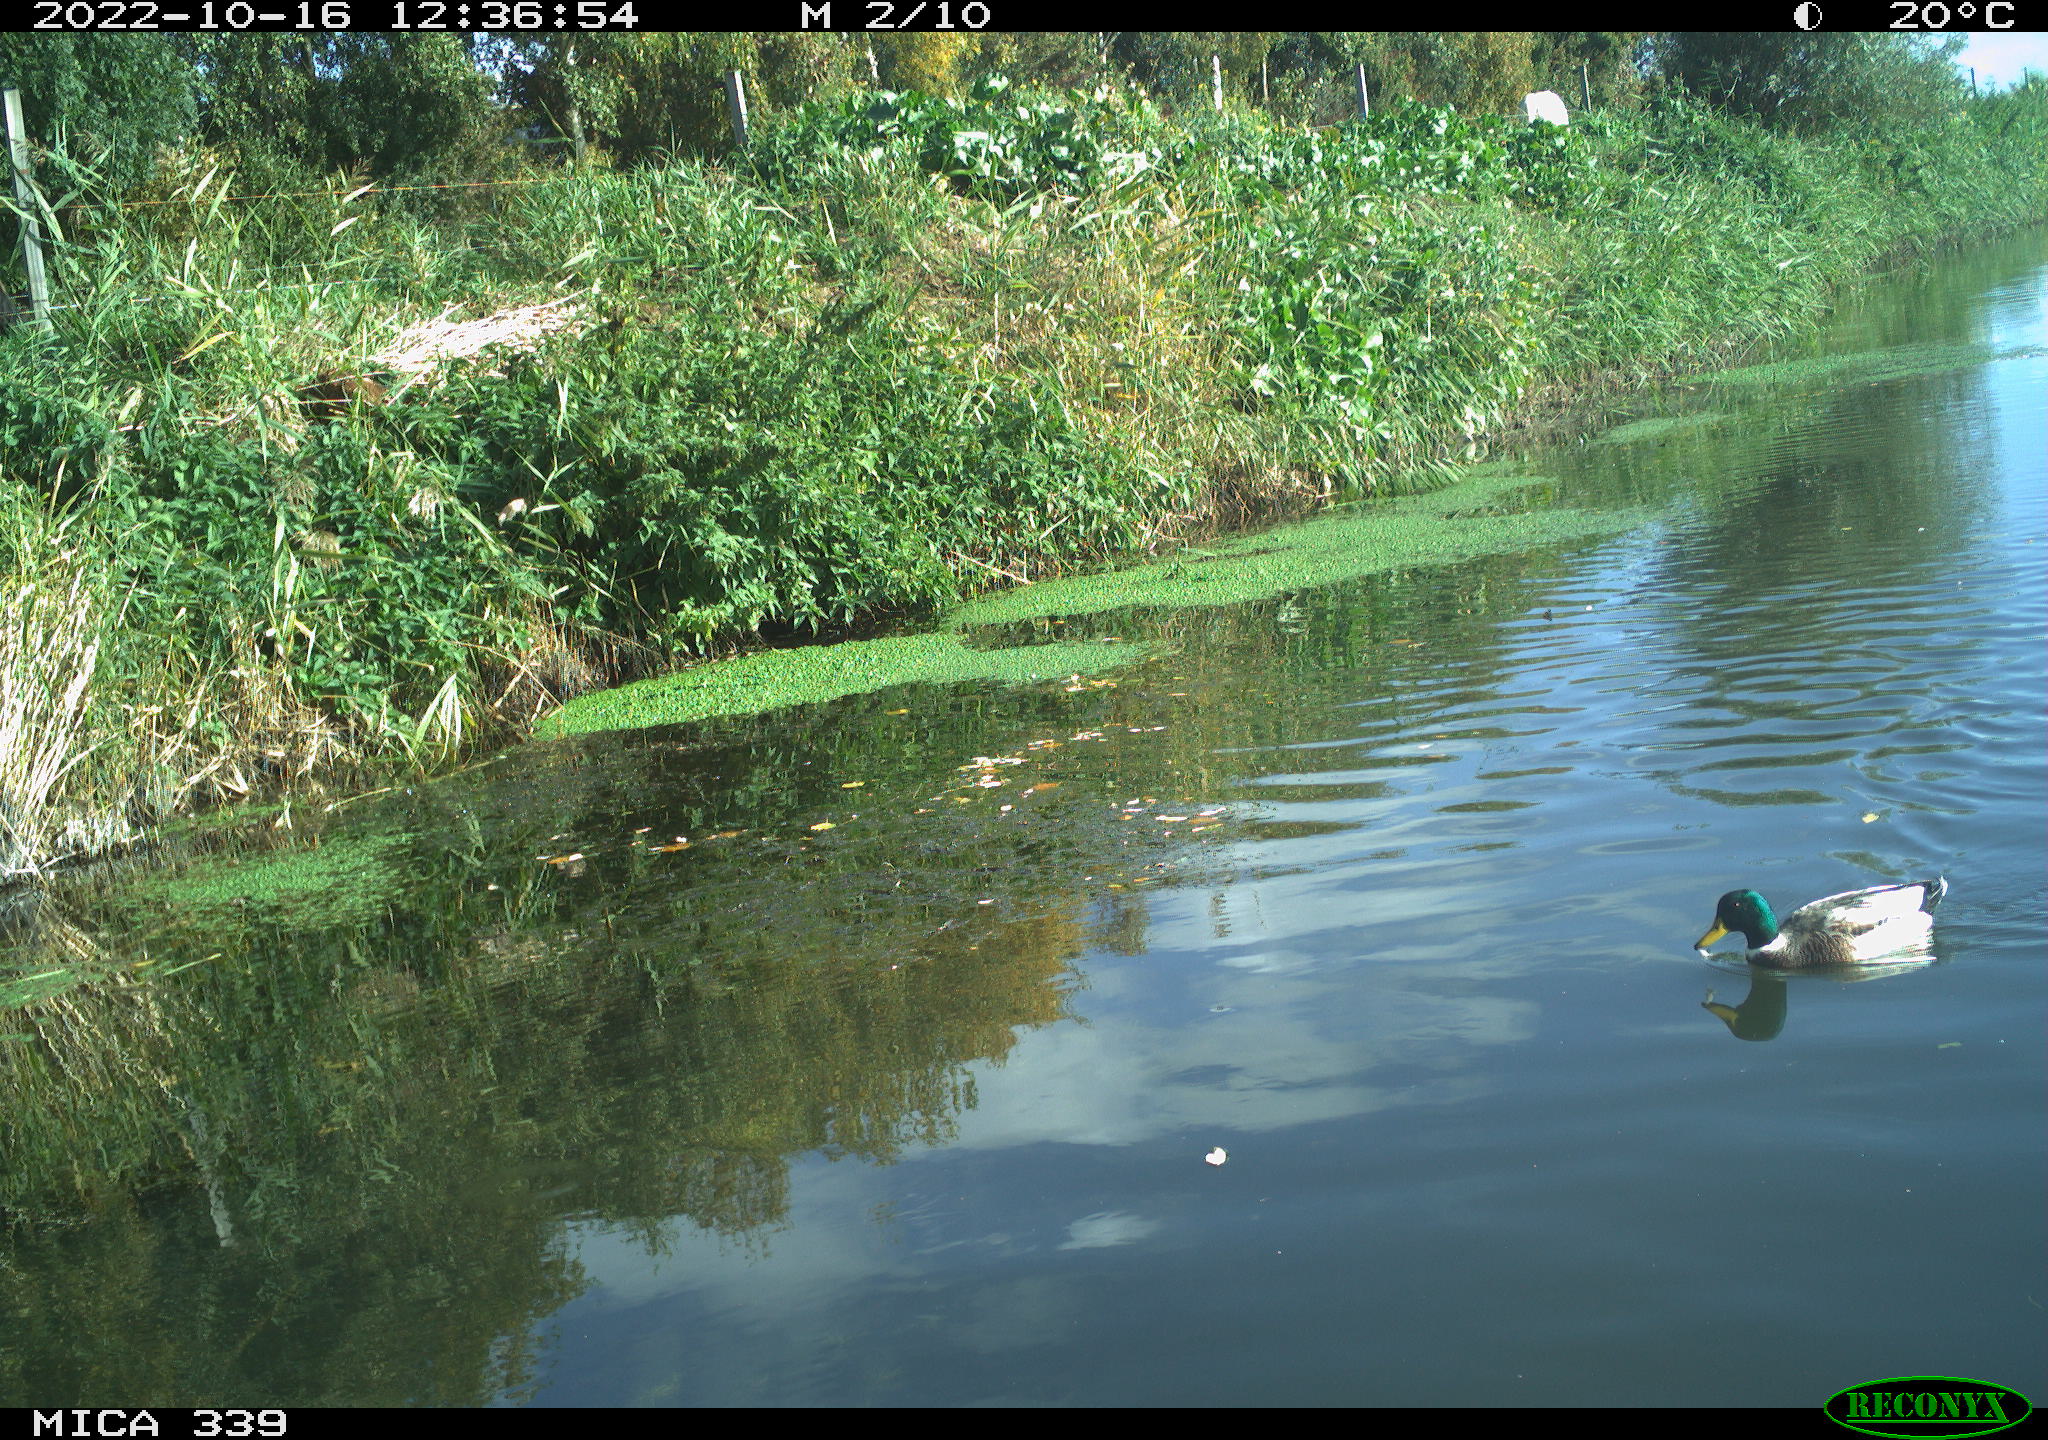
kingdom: Animalia
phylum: Chordata
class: Aves
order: Anseriformes
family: Anatidae
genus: Anas
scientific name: Anas platyrhynchos
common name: Mallard
